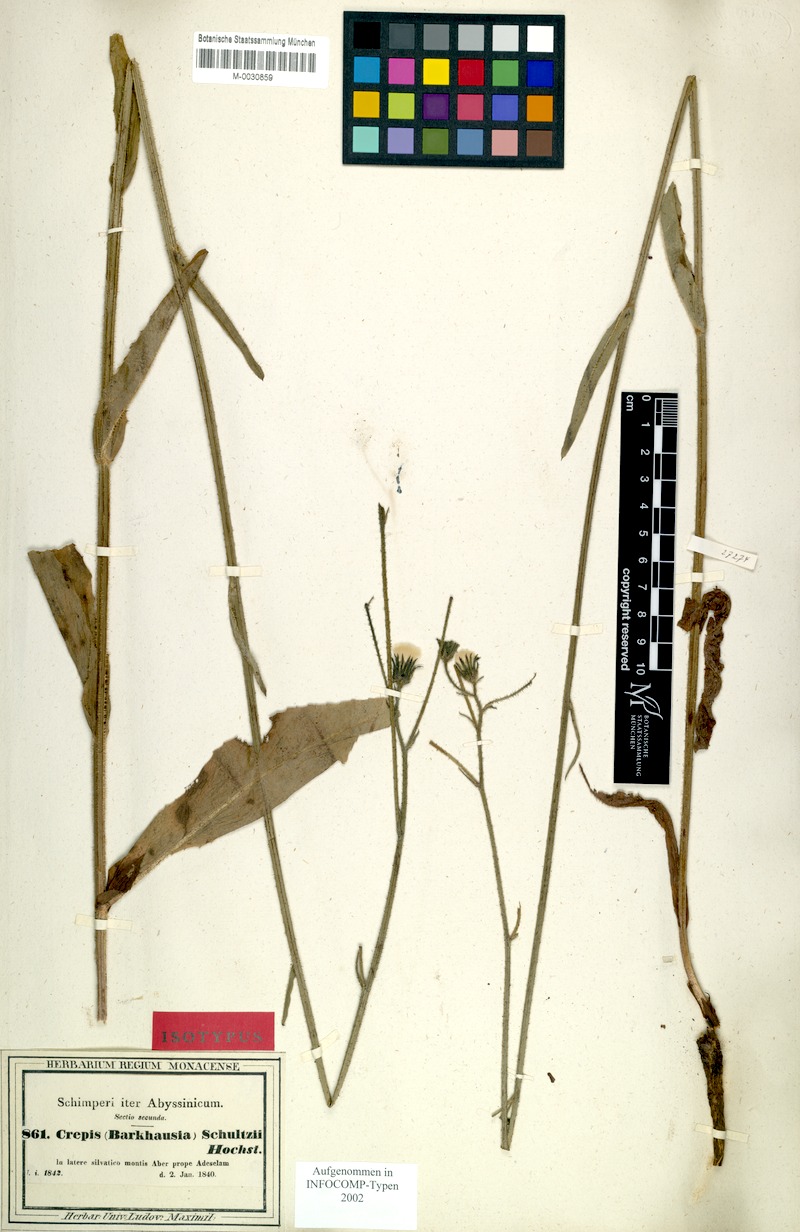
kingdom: Plantae
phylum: Tracheophyta
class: Magnoliopsida
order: Asterales
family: Asteraceae
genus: Crepis
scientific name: Crepis schultzii
